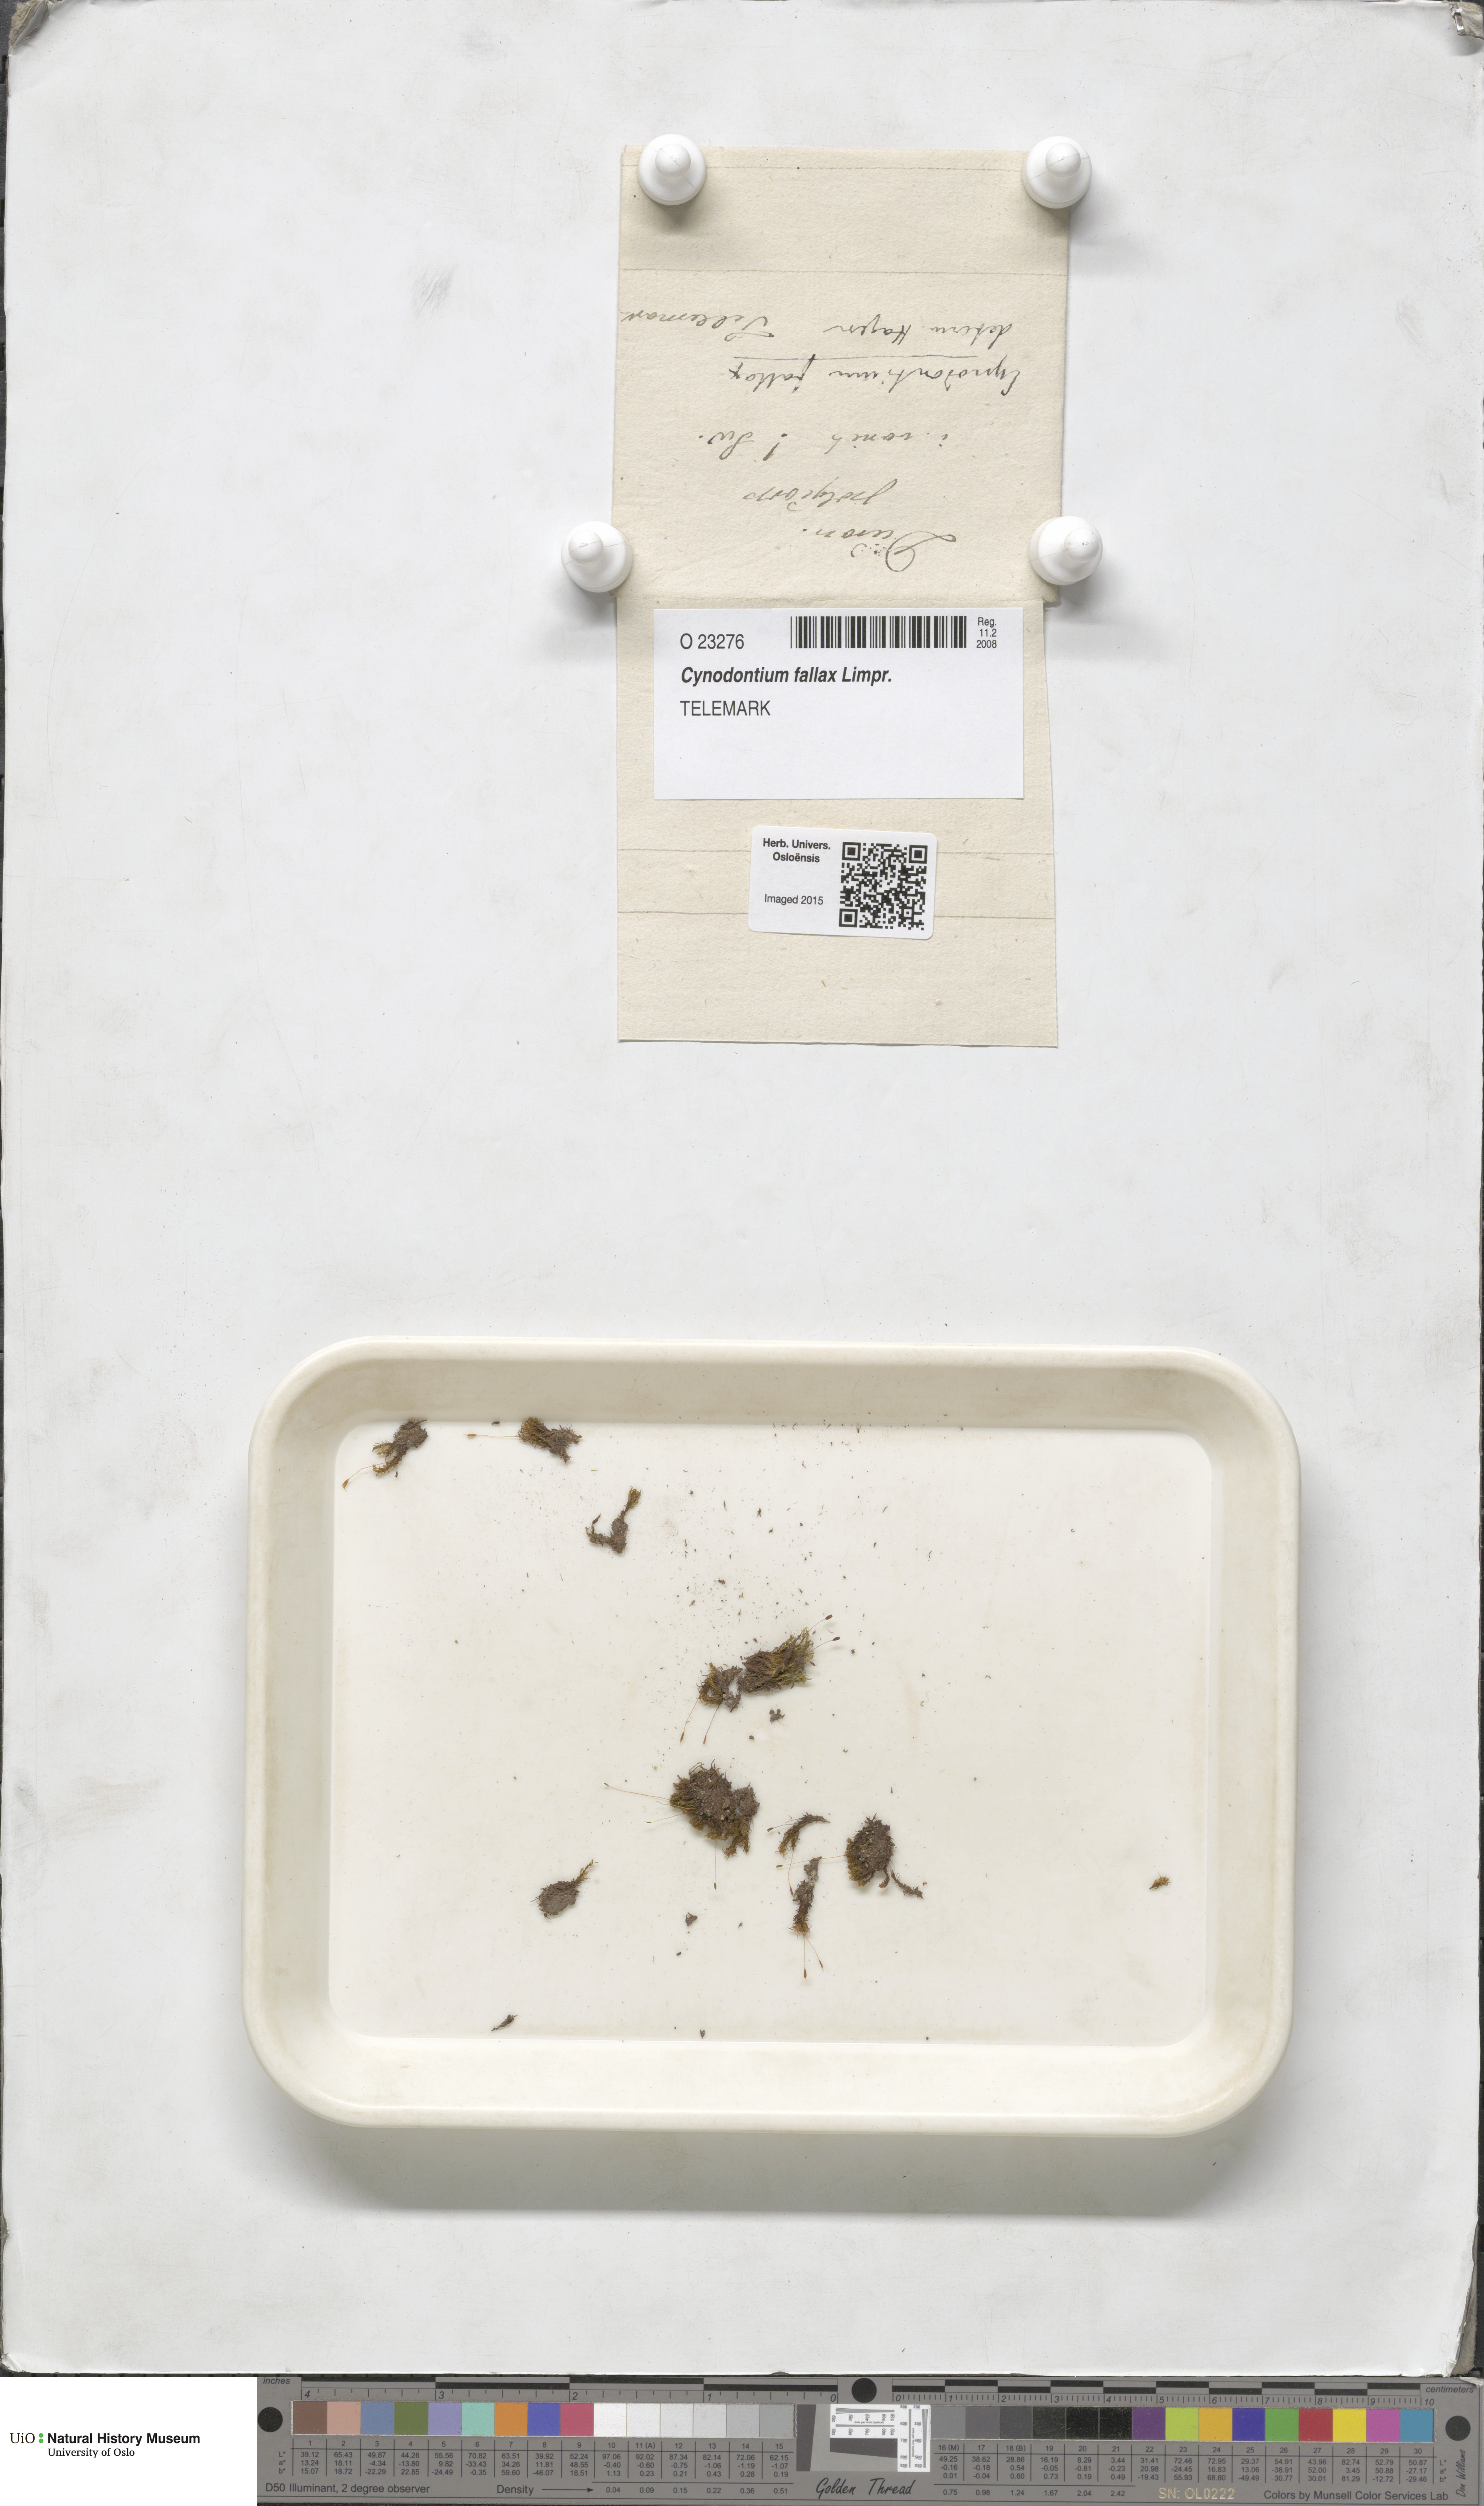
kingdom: Plantae
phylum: Bryophyta
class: Bryopsida
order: Dicranales
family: Rhabdoweisiaceae
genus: Cynodontium
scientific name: Cynodontium fallax
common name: False dog-tooth
